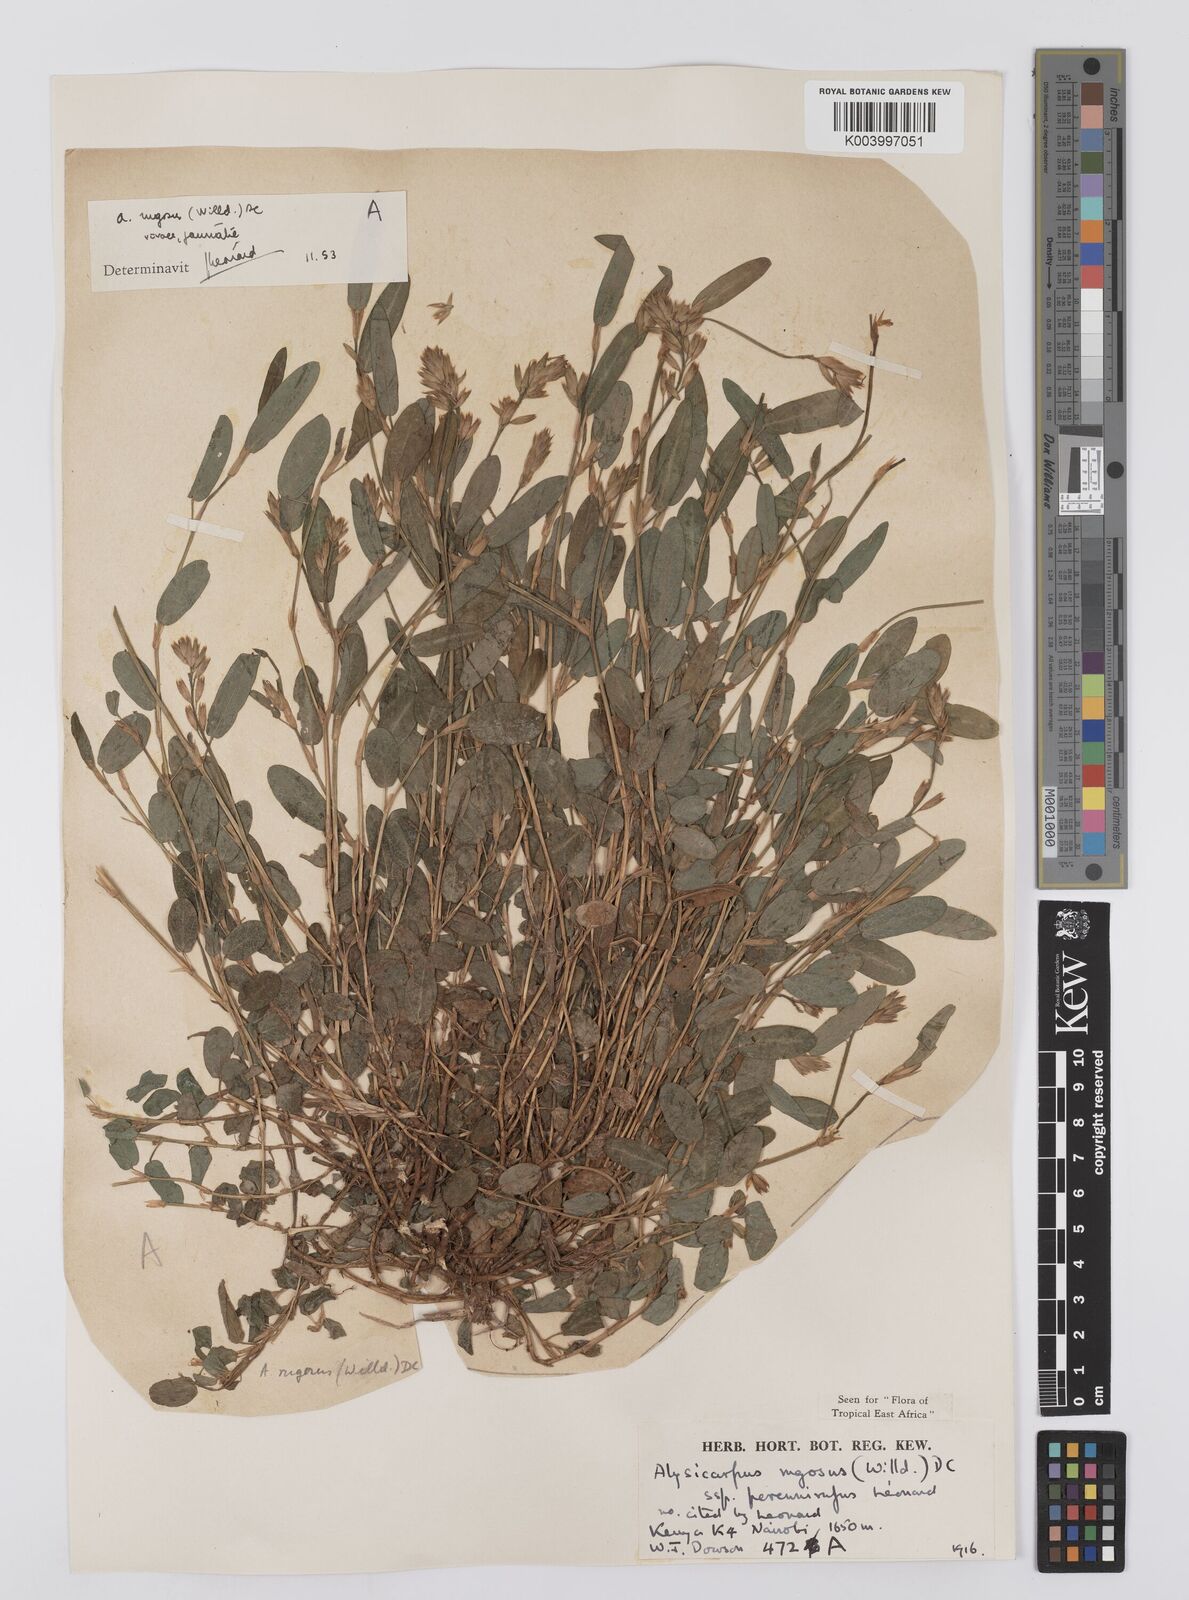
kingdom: Plantae
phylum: Tracheophyta
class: Magnoliopsida
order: Fabales
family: Fabaceae
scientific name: Fabaceae
